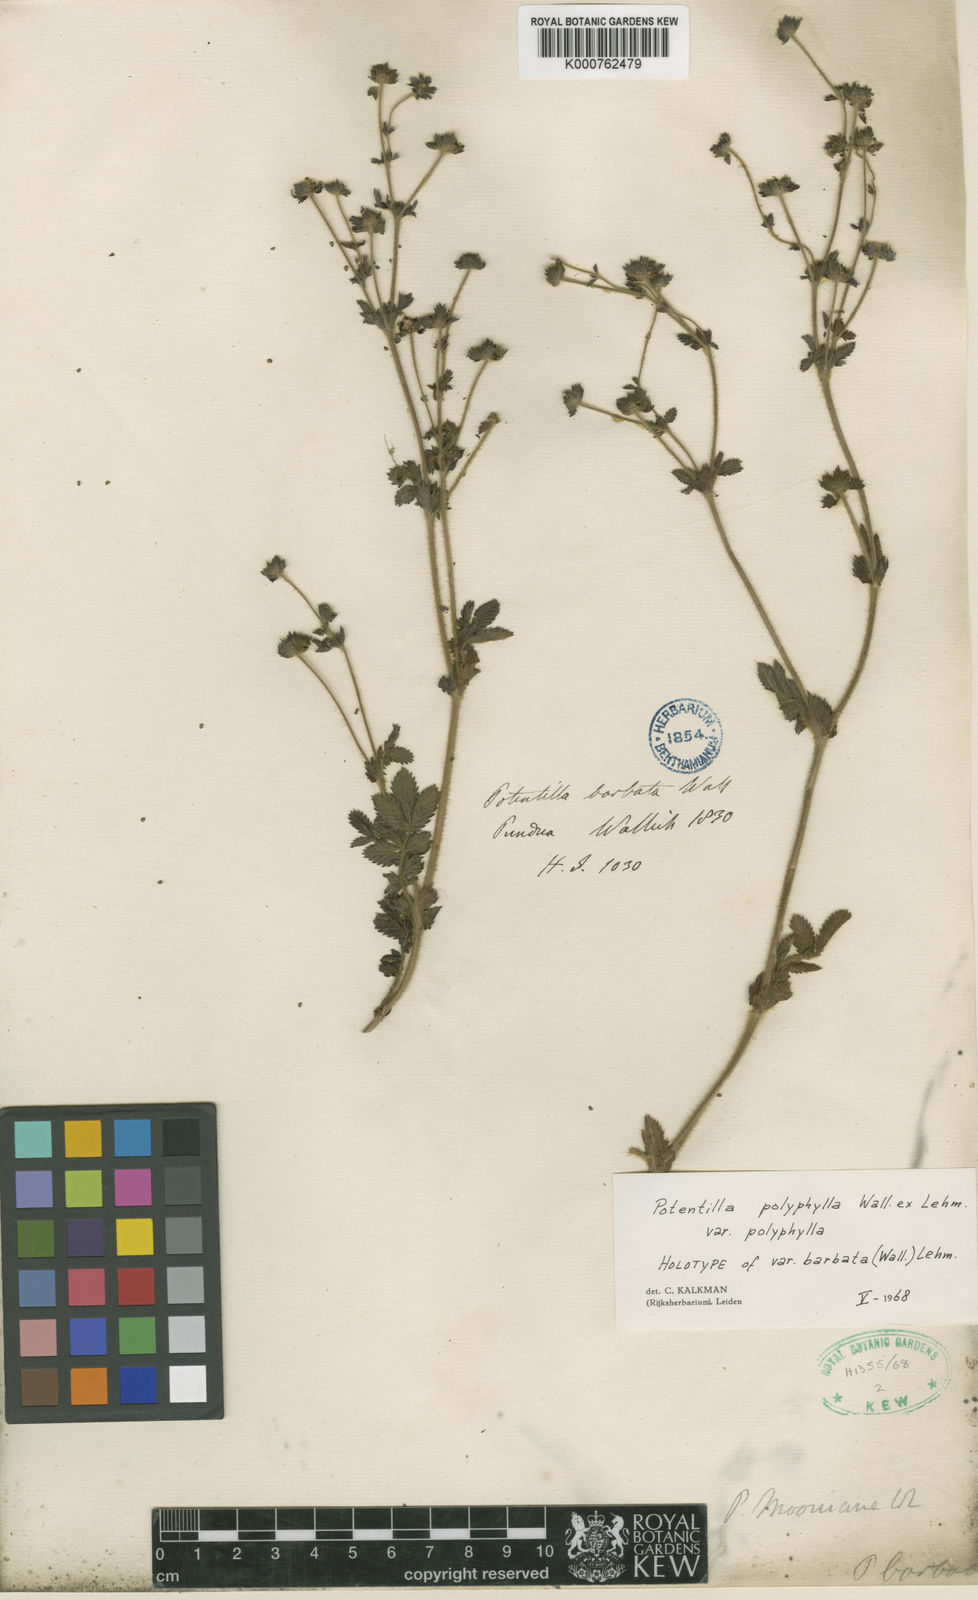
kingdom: Plantae
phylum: Tracheophyta
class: Magnoliopsida
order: Rosales
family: Rosaceae
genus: Argentina
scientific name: Argentina polyphylla
